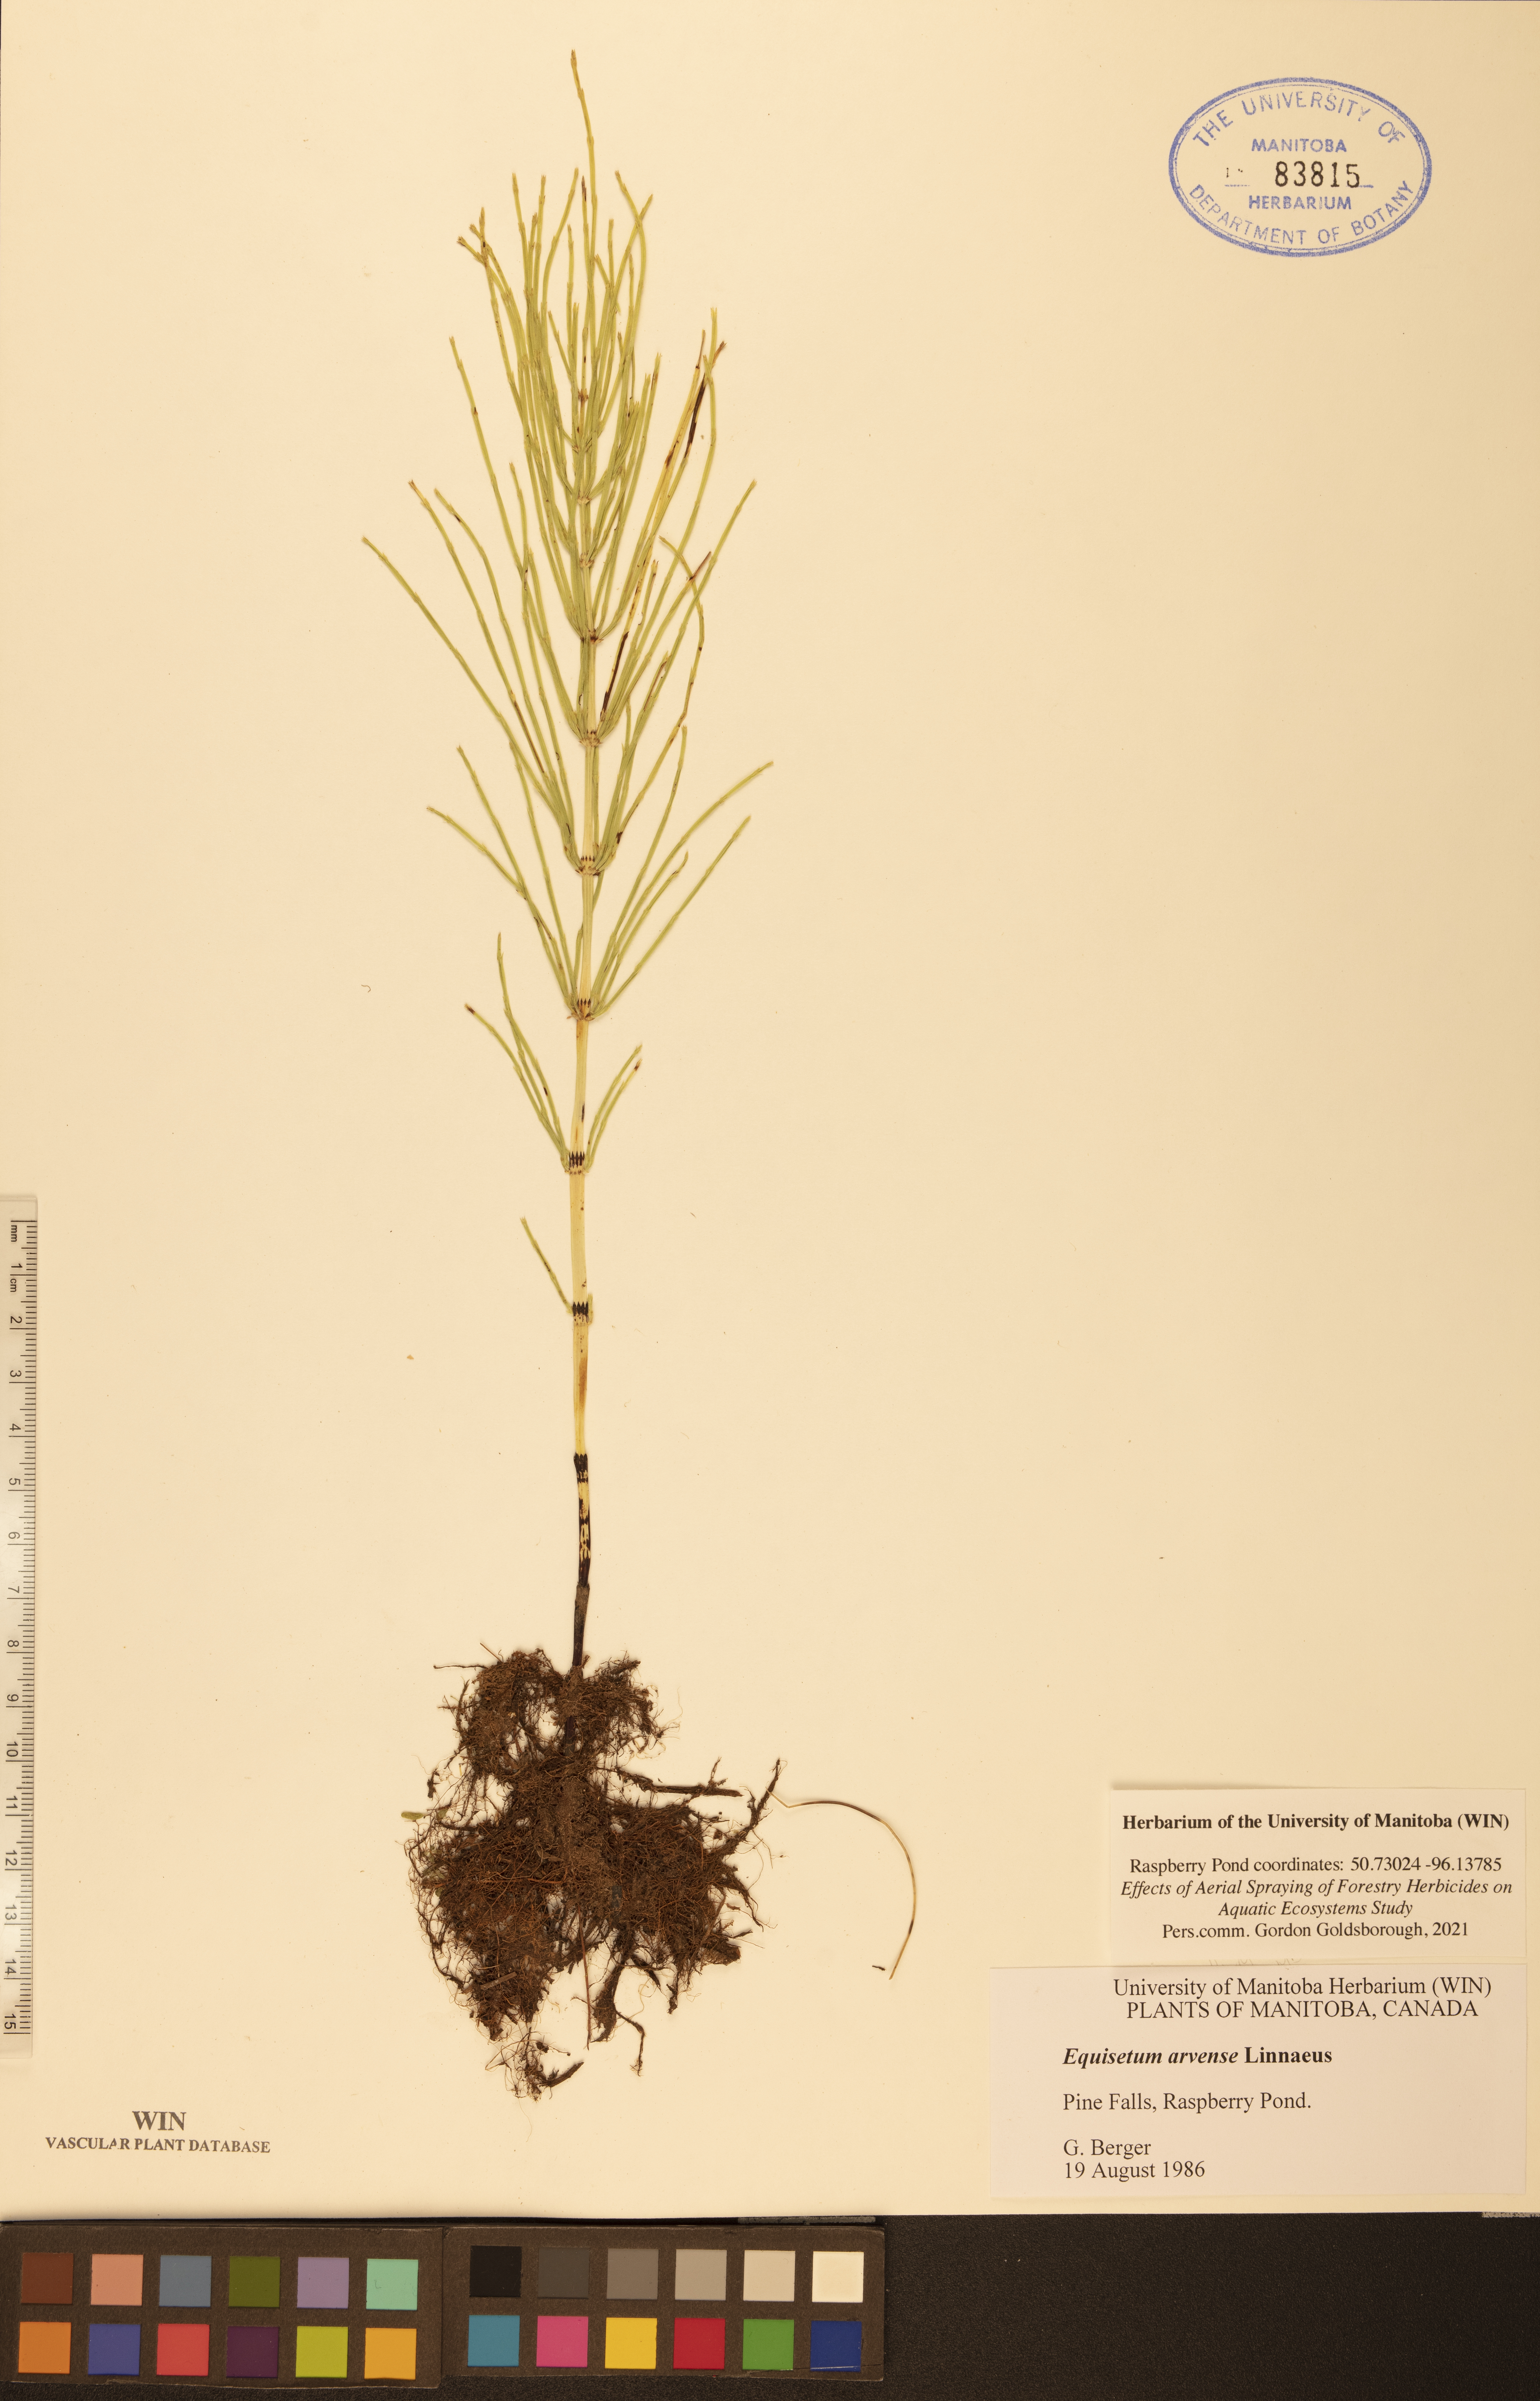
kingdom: Plantae
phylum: Tracheophyta
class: Polypodiopsida
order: Equisetales
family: Equisetaceae
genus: Equisetum
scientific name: Equisetum arvense
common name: Field horsetail
